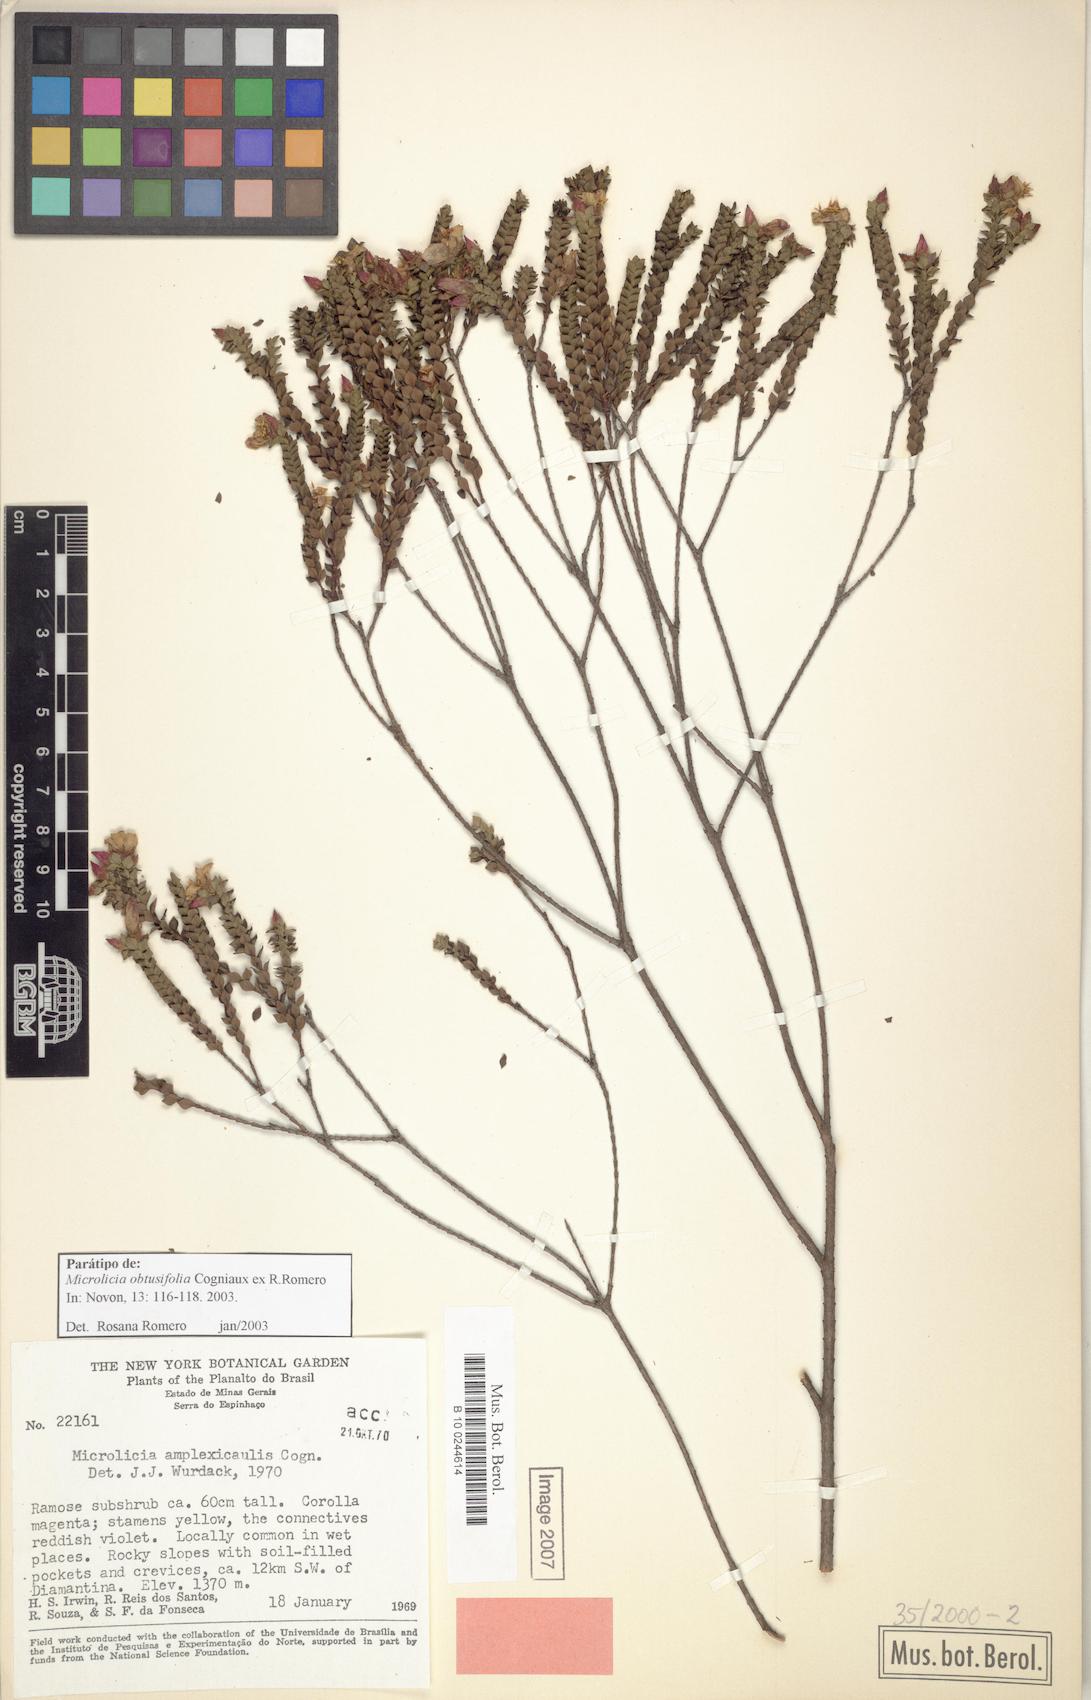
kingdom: Plantae
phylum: Tracheophyta
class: Magnoliopsida
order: Myrtales
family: Melastomataceae
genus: Microlicia
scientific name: Microlicia obtusifolia
